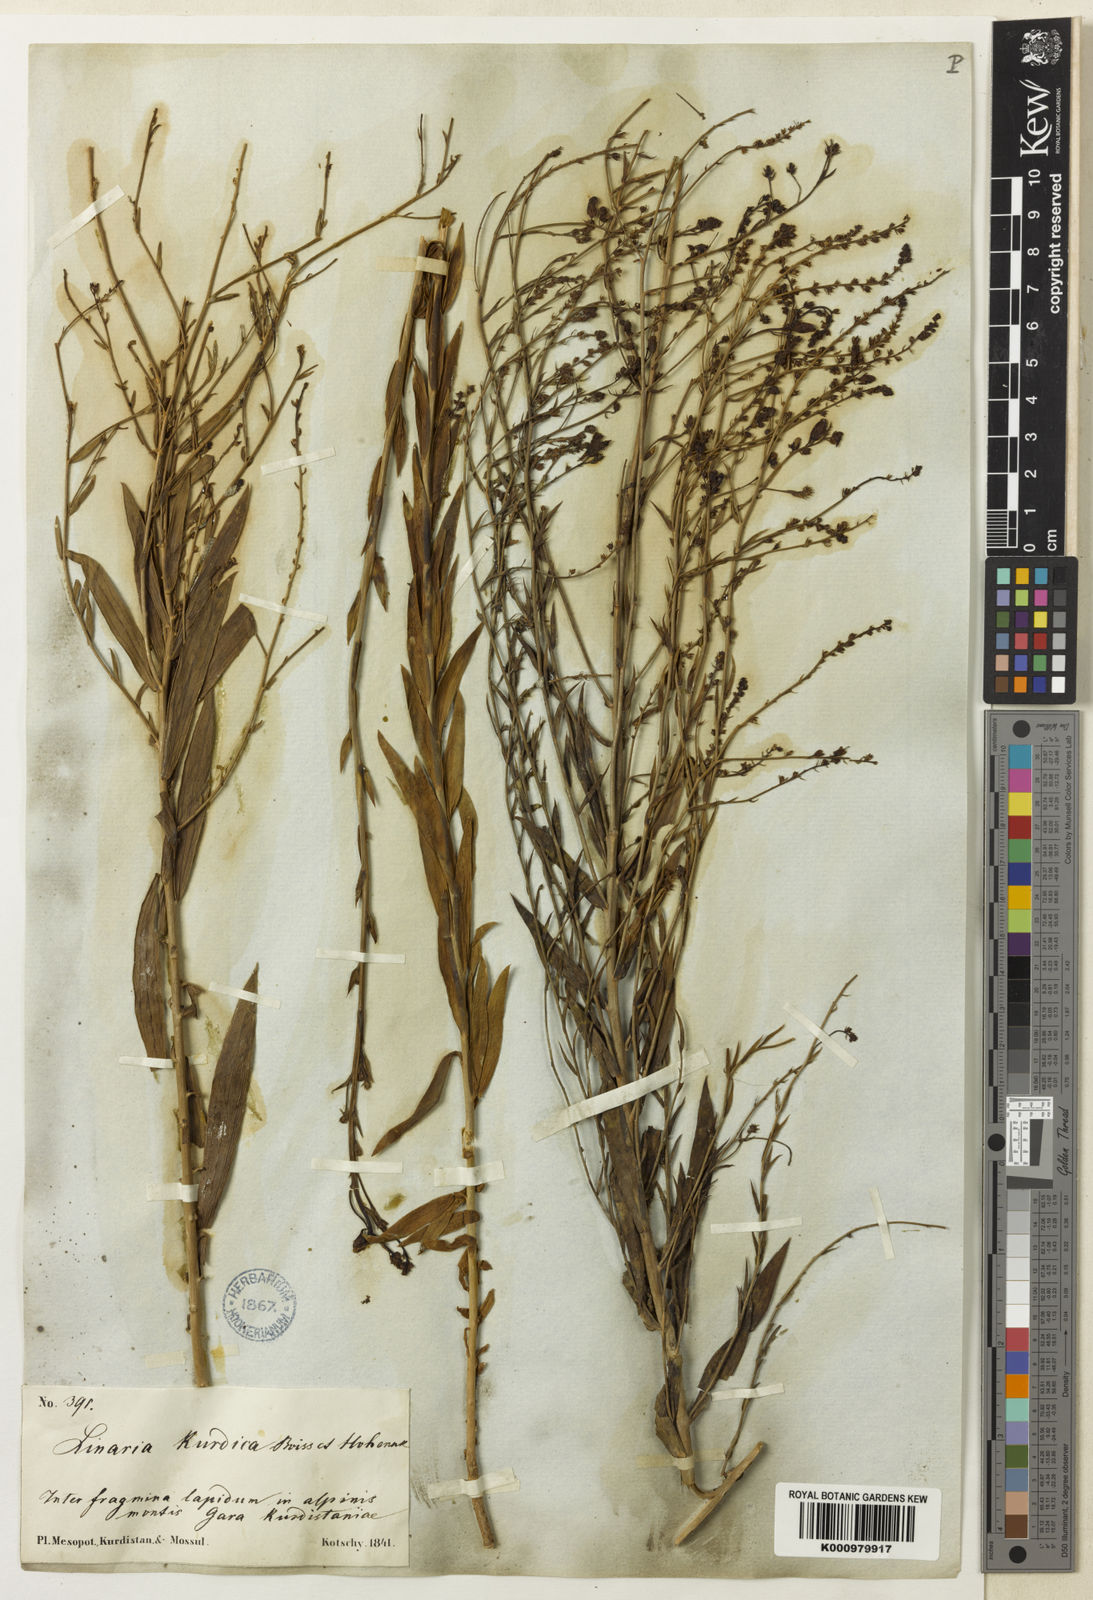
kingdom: Plantae
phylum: Tracheophyta
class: Magnoliopsida
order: Lamiales
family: Plantaginaceae
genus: Linaria
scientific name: Linaria kurdica
